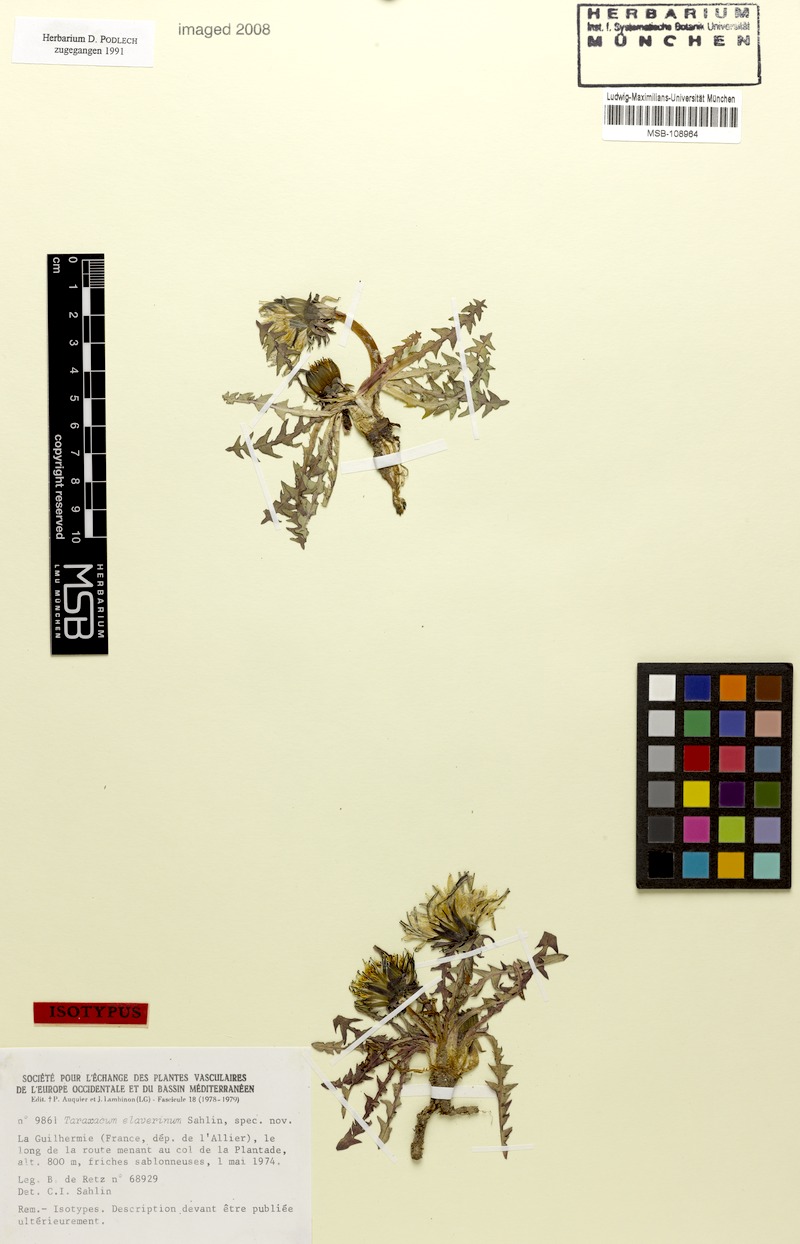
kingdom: Plantae
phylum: Tracheophyta
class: Magnoliopsida
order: Asterales
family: Asteraceae
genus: Taraxacum
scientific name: Taraxacum elaverinum
